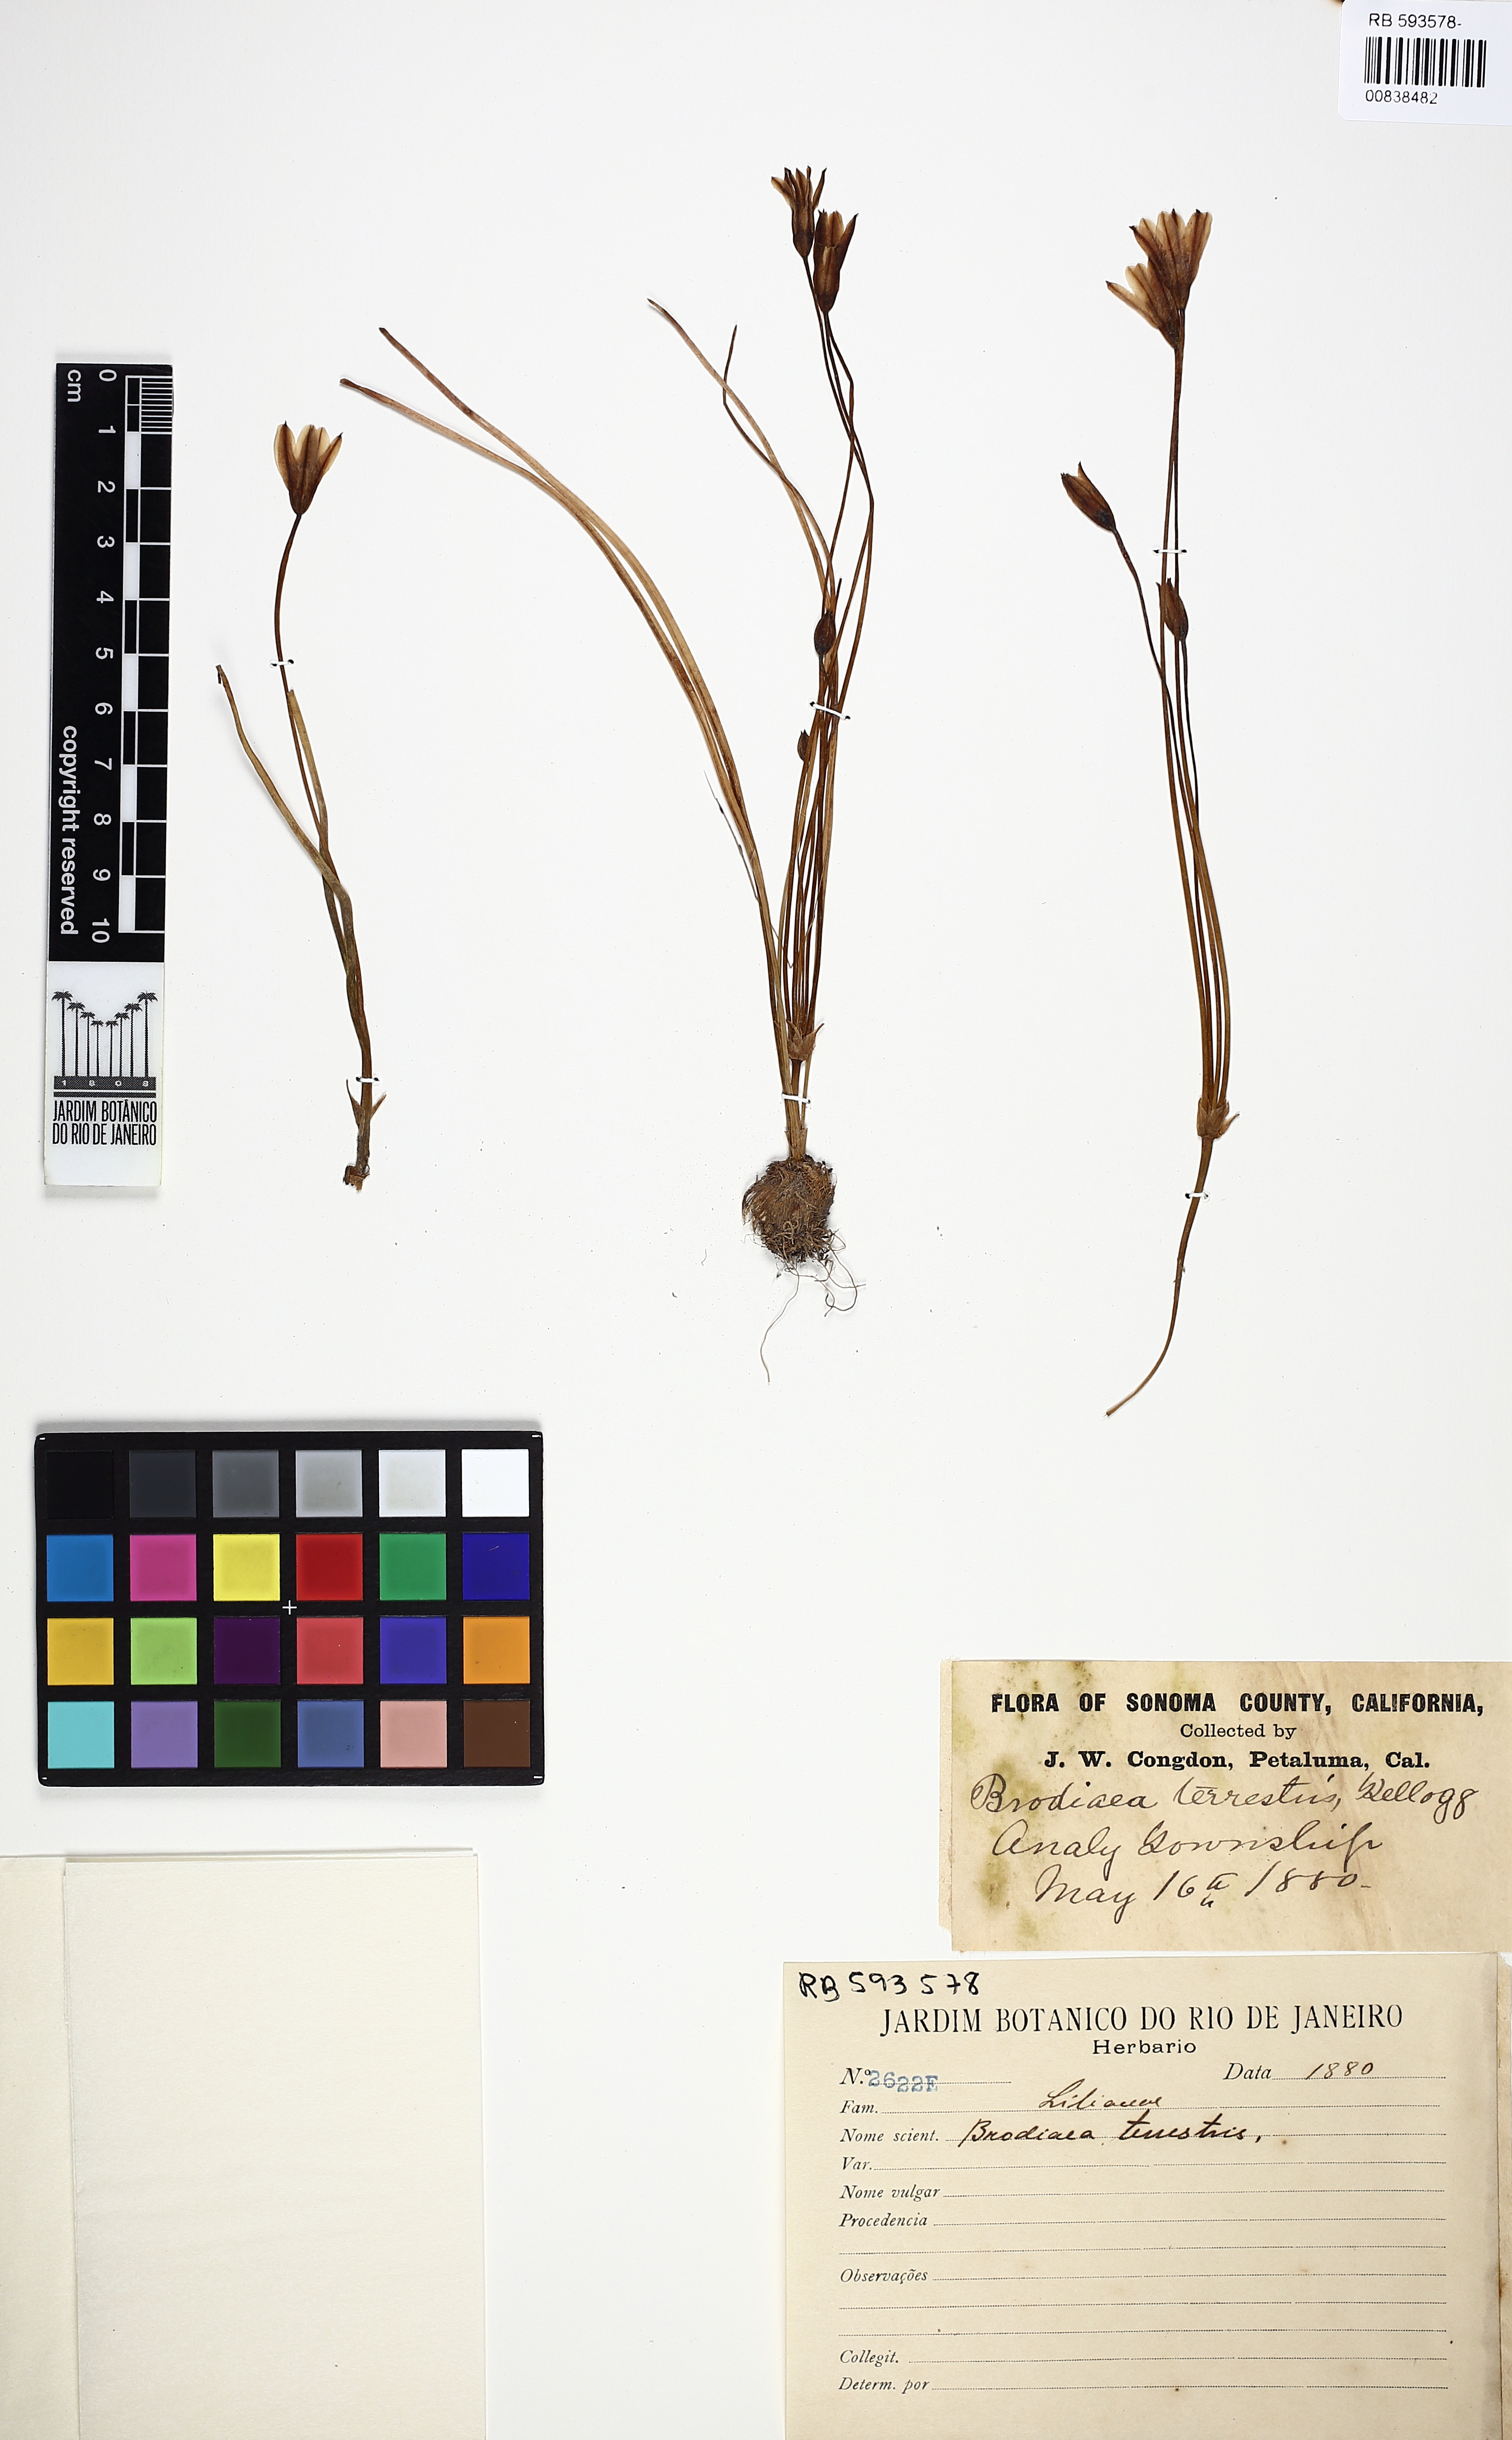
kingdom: Plantae
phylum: Tracheophyta
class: Liliopsida
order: Asparagales
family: Asparagaceae
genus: Brodiaea
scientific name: Brodiaea terrestris
